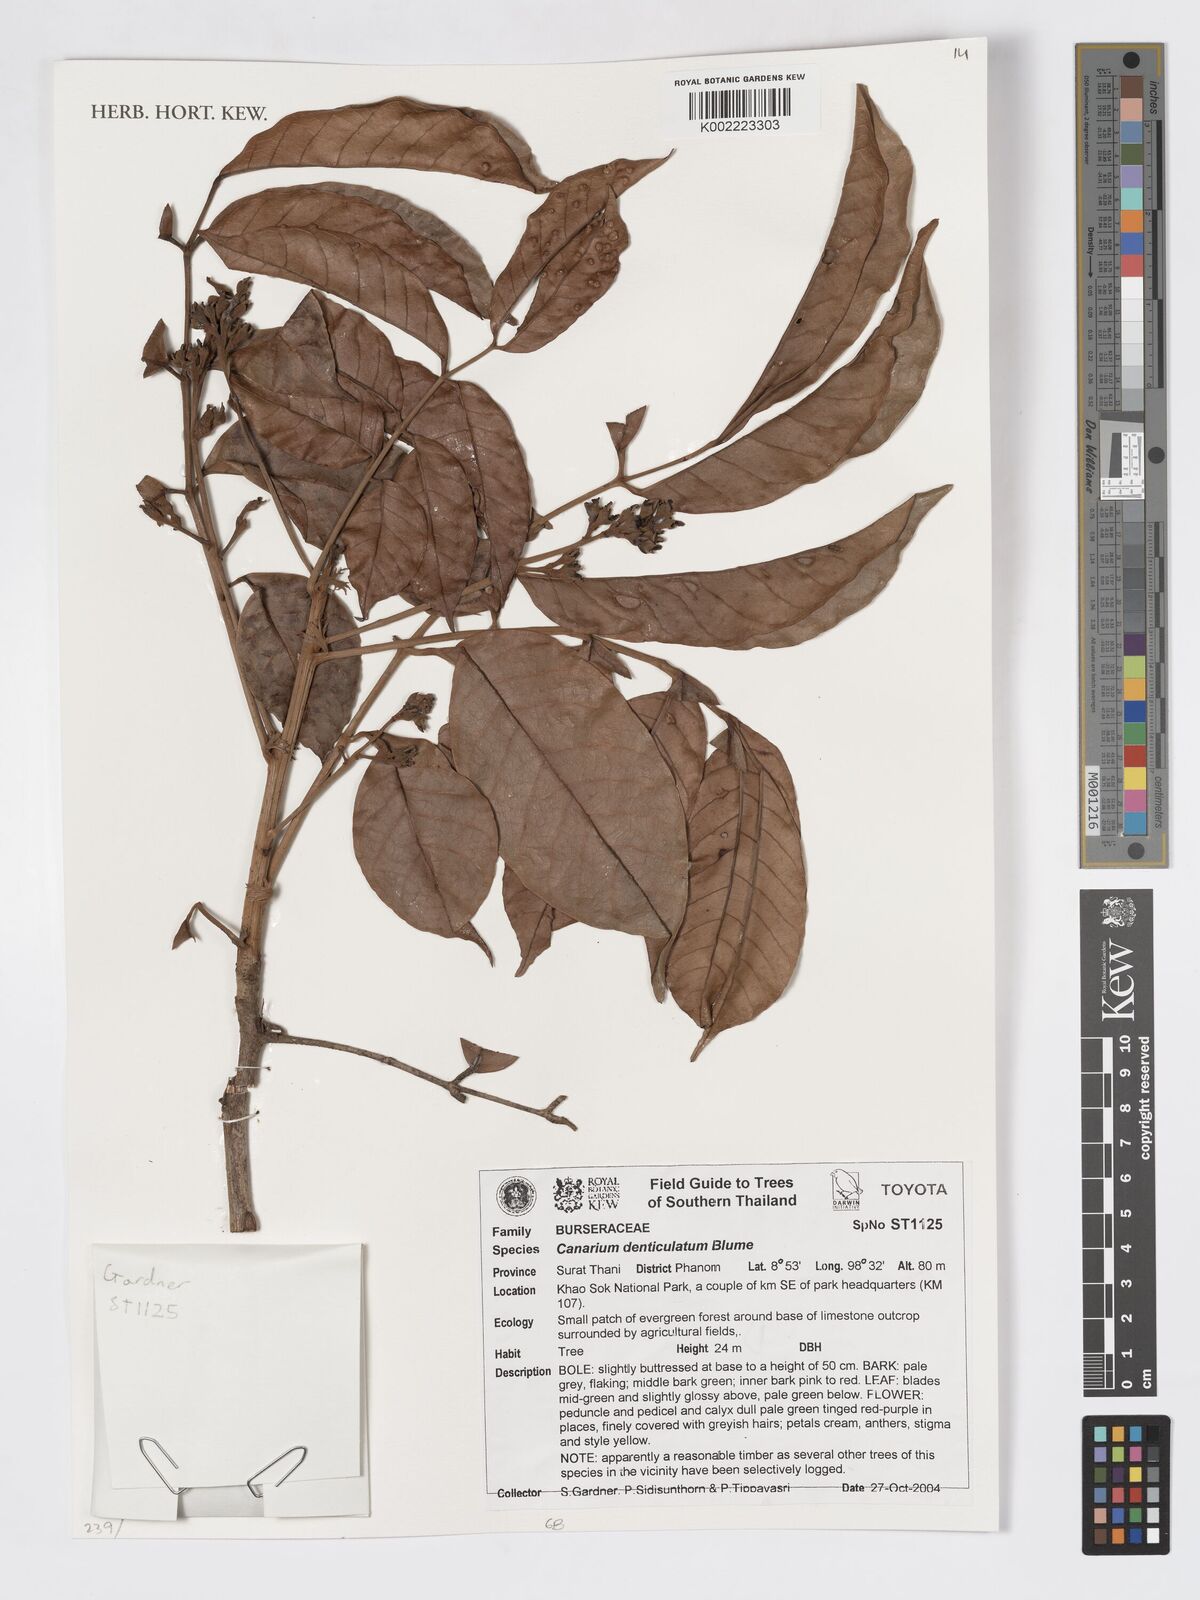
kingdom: Plantae
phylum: Tracheophyta
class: Magnoliopsida
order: Sapindales
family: Burseraceae
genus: Canarium
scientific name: Canarium denticulatum
